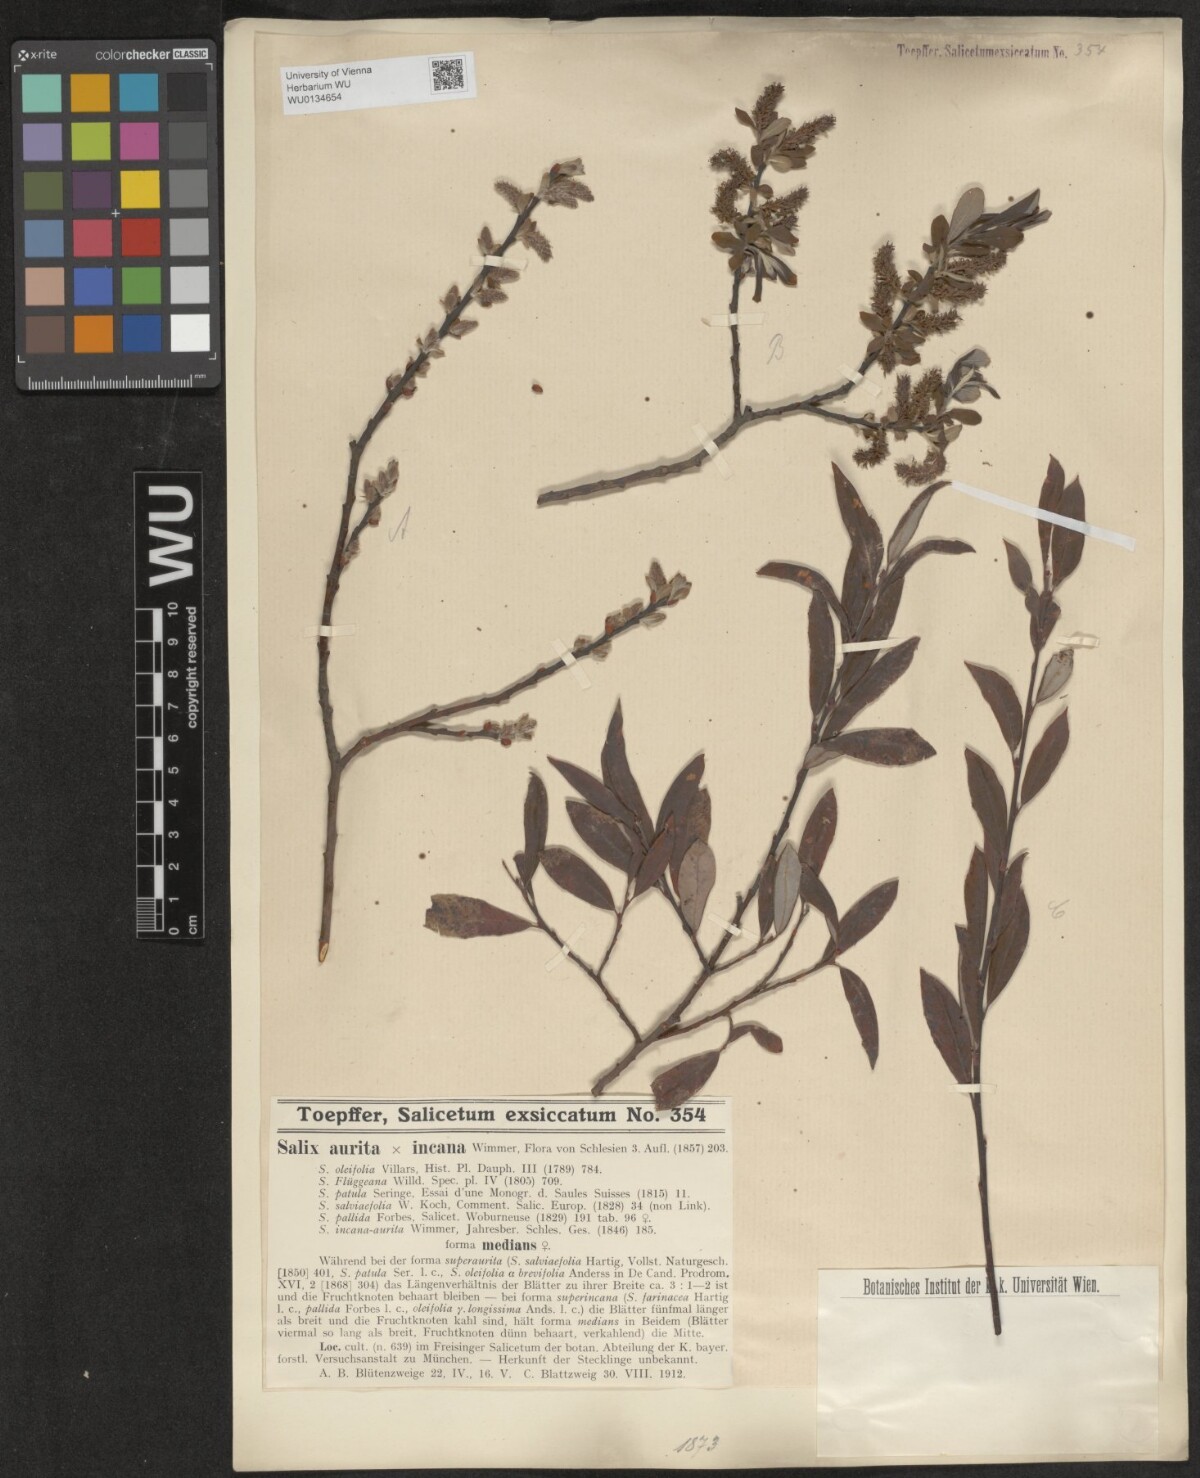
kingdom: Plantae
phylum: Tracheophyta
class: Magnoliopsida
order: Malpighiales
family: Salicaceae
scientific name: Salicaceae
